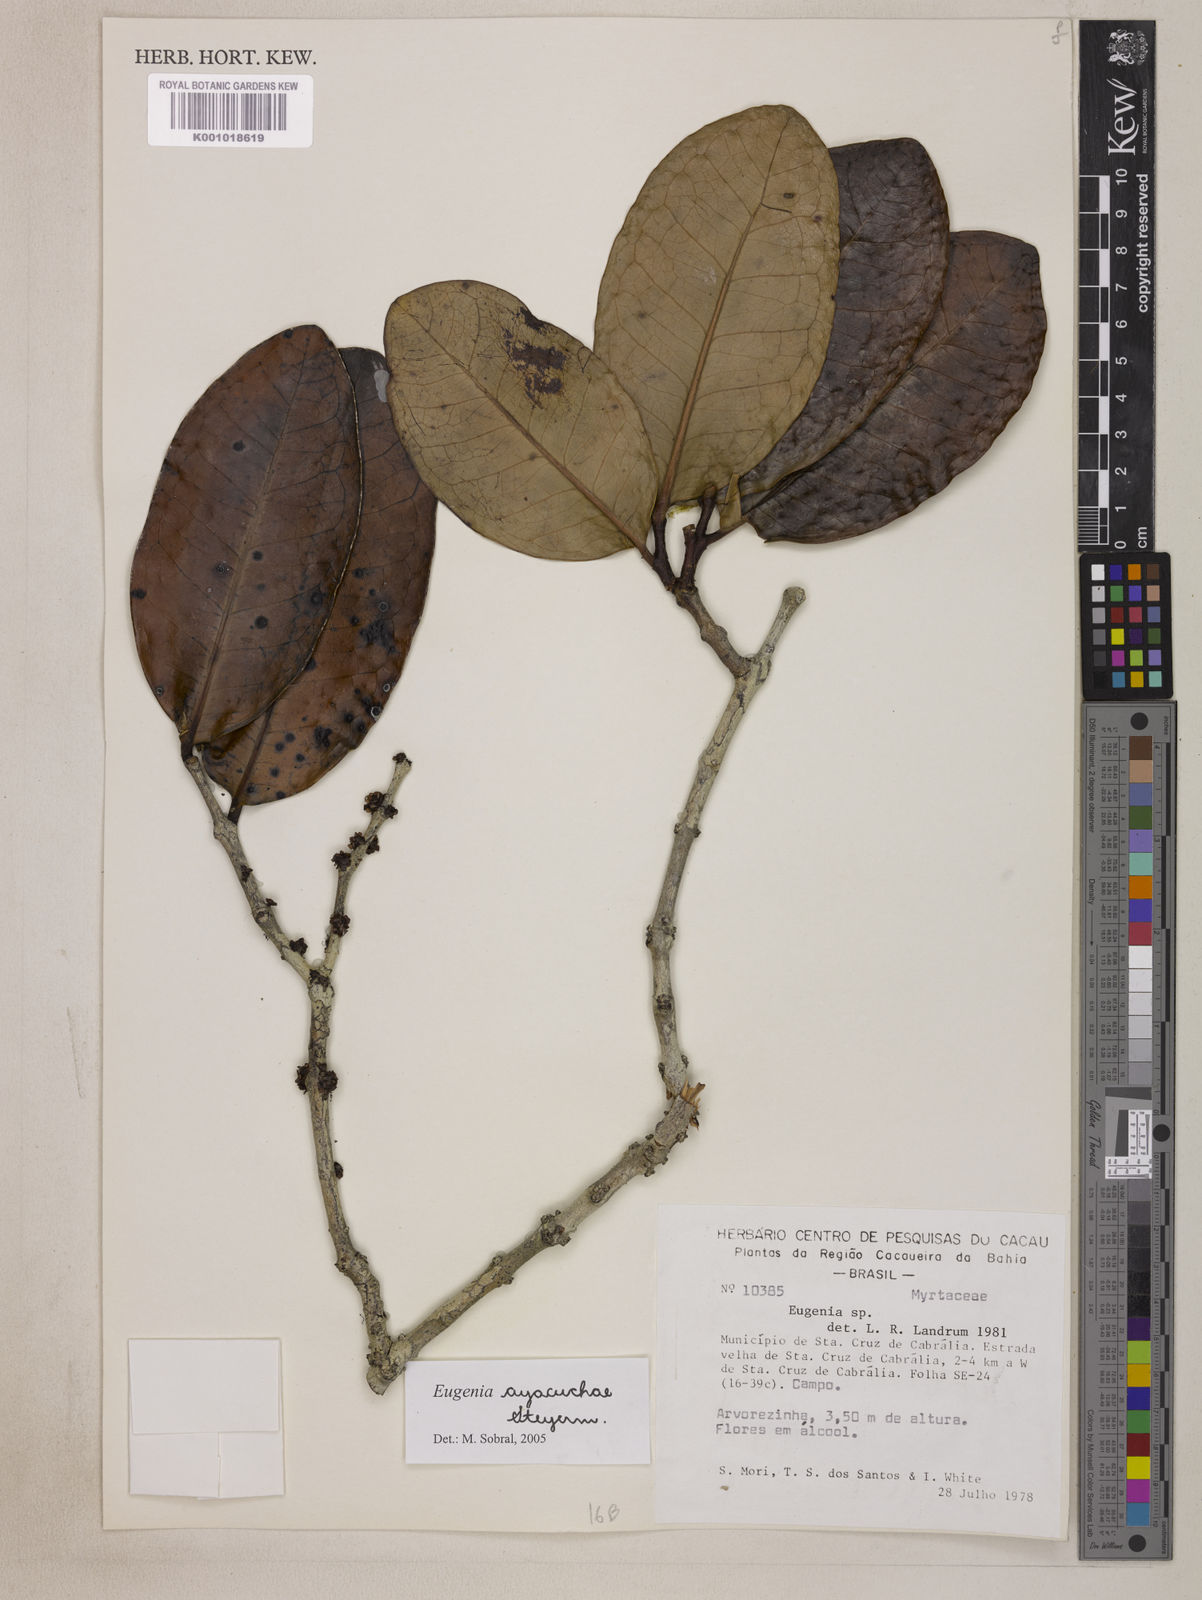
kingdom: Plantae
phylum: Tracheophyta
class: Magnoliopsida
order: Myrtales
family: Myrtaceae
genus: Eugenia
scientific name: Eugenia ayacuchae
